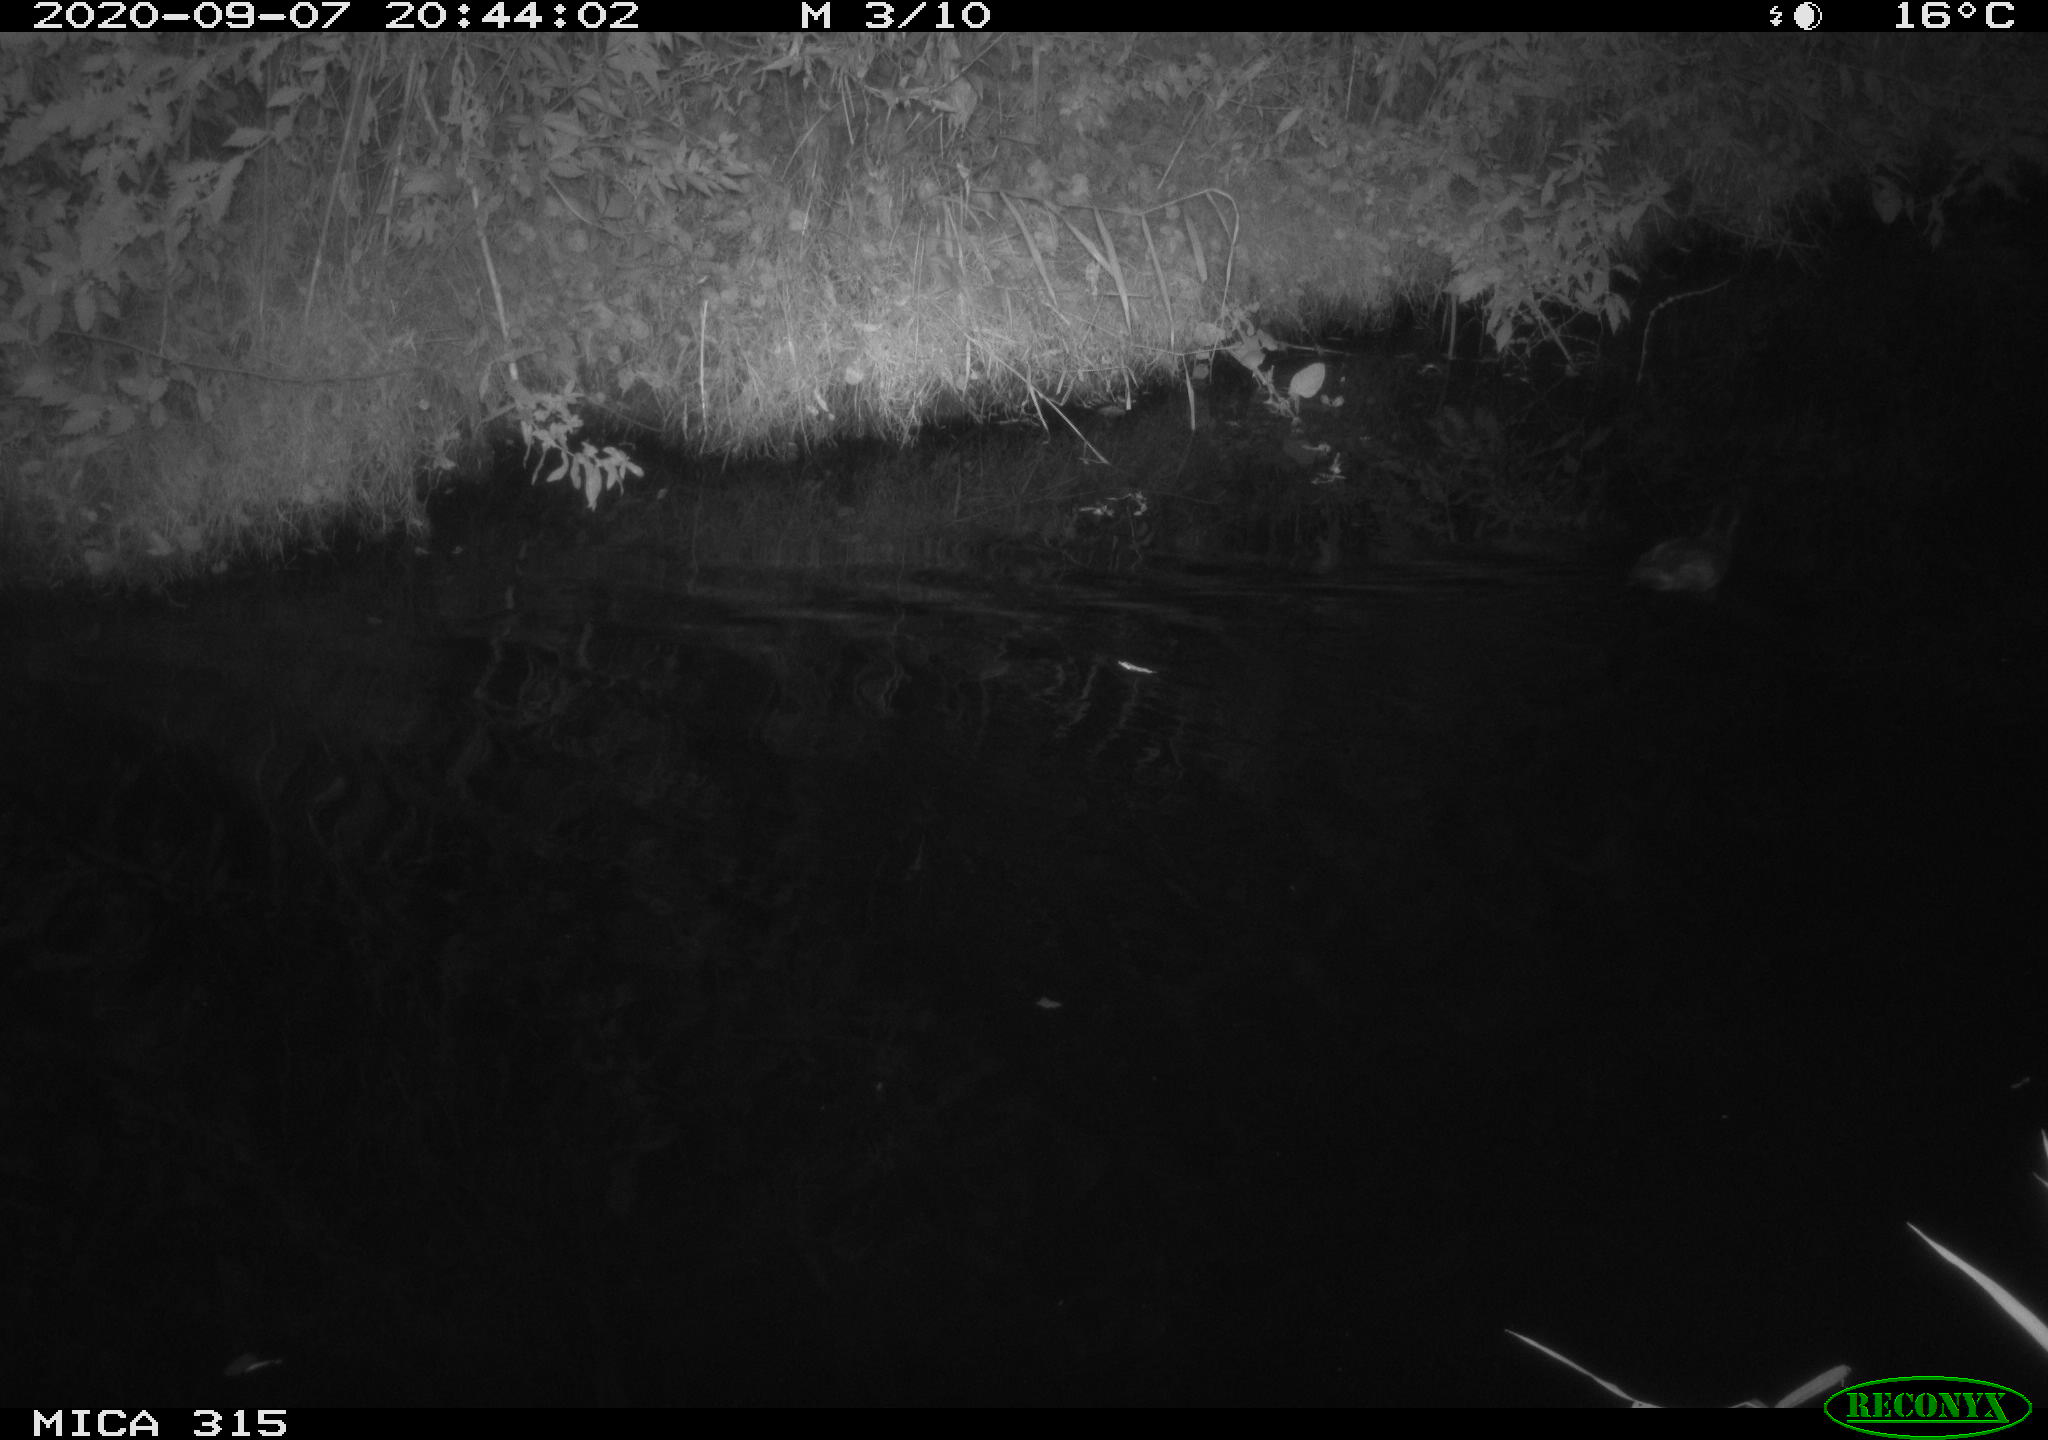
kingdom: Animalia
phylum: Chordata
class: Aves
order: Gruiformes
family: Rallidae
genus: Fulica
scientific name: Fulica atra
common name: Eurasian coot
